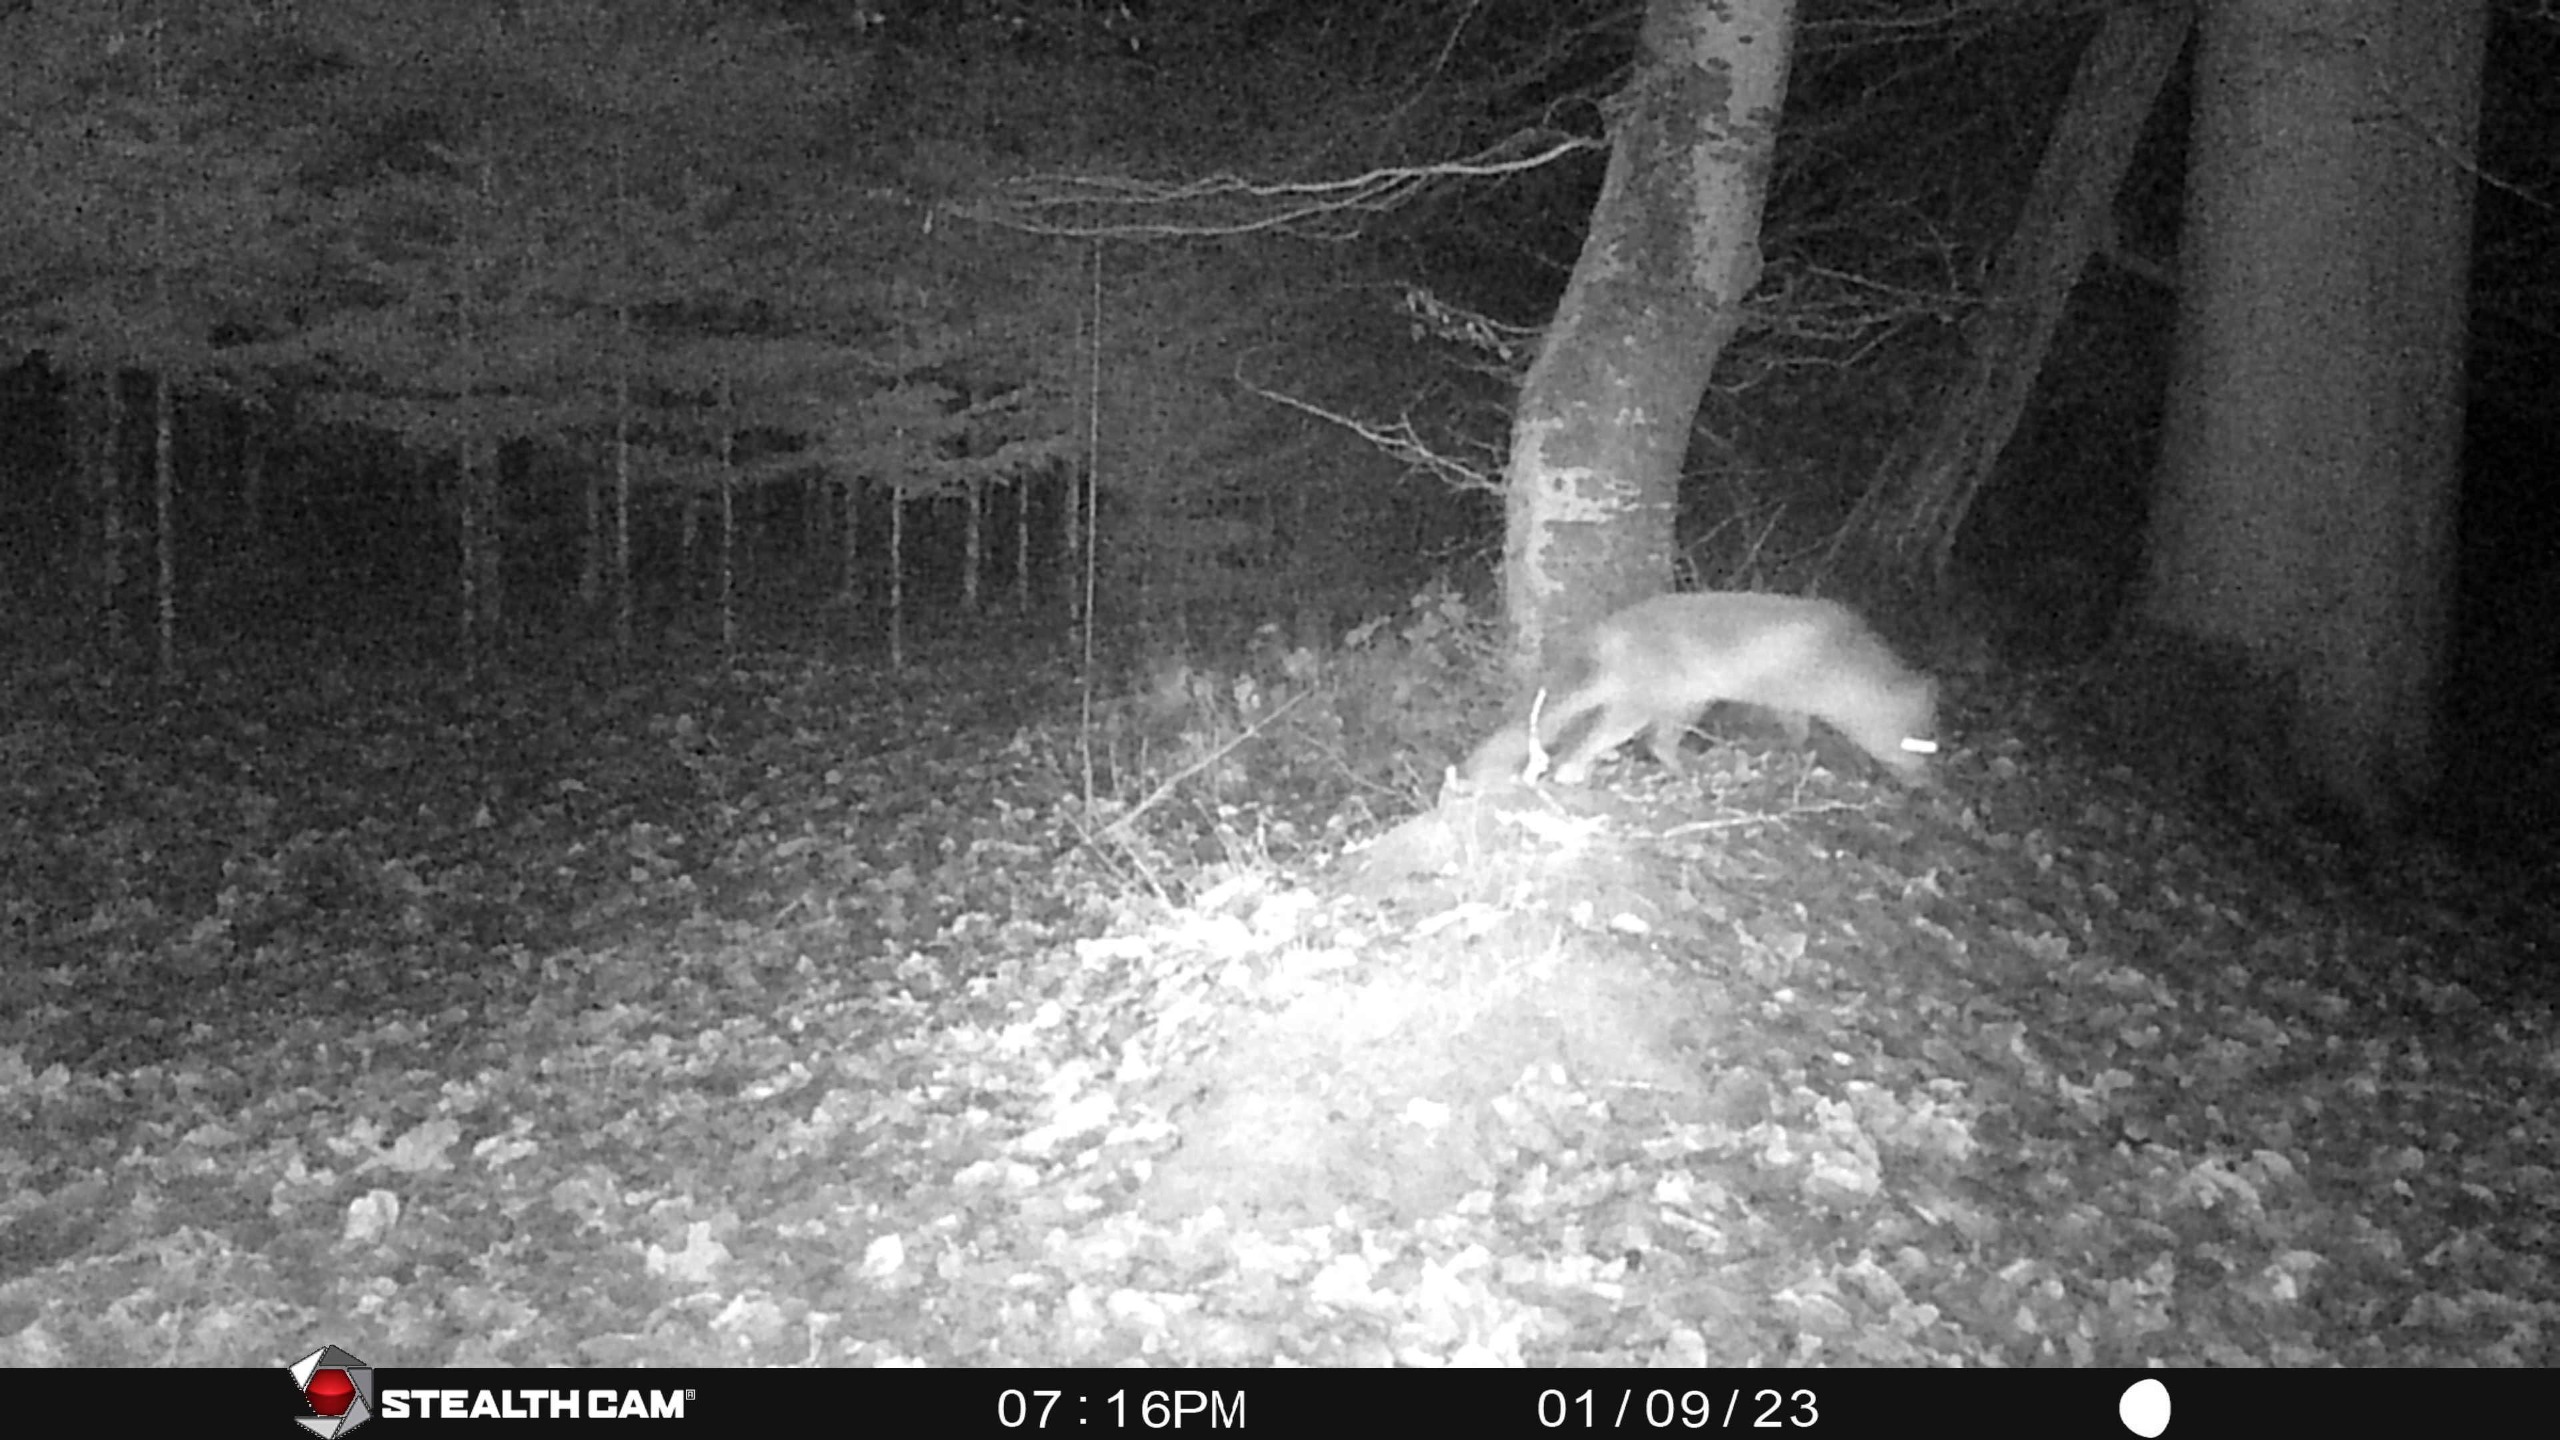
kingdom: Animalia
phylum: Chordata
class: Mammalia
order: Carnivora
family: Canidae
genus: Vulpes
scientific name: Vulpes vulpes
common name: Ræv
